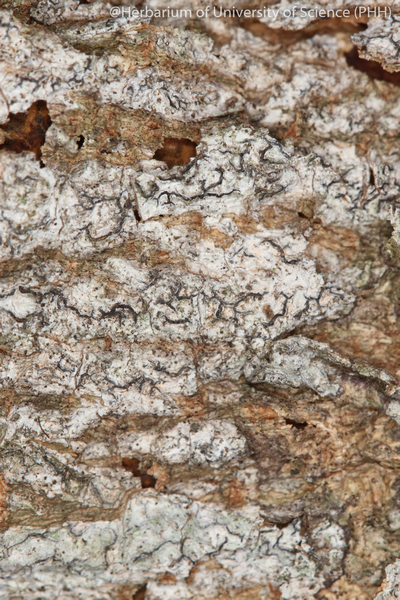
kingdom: Fungi
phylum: Ascomycota
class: Lecanoromycetes
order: Ostropales
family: Graphidaceae
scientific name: Graphidaceae
